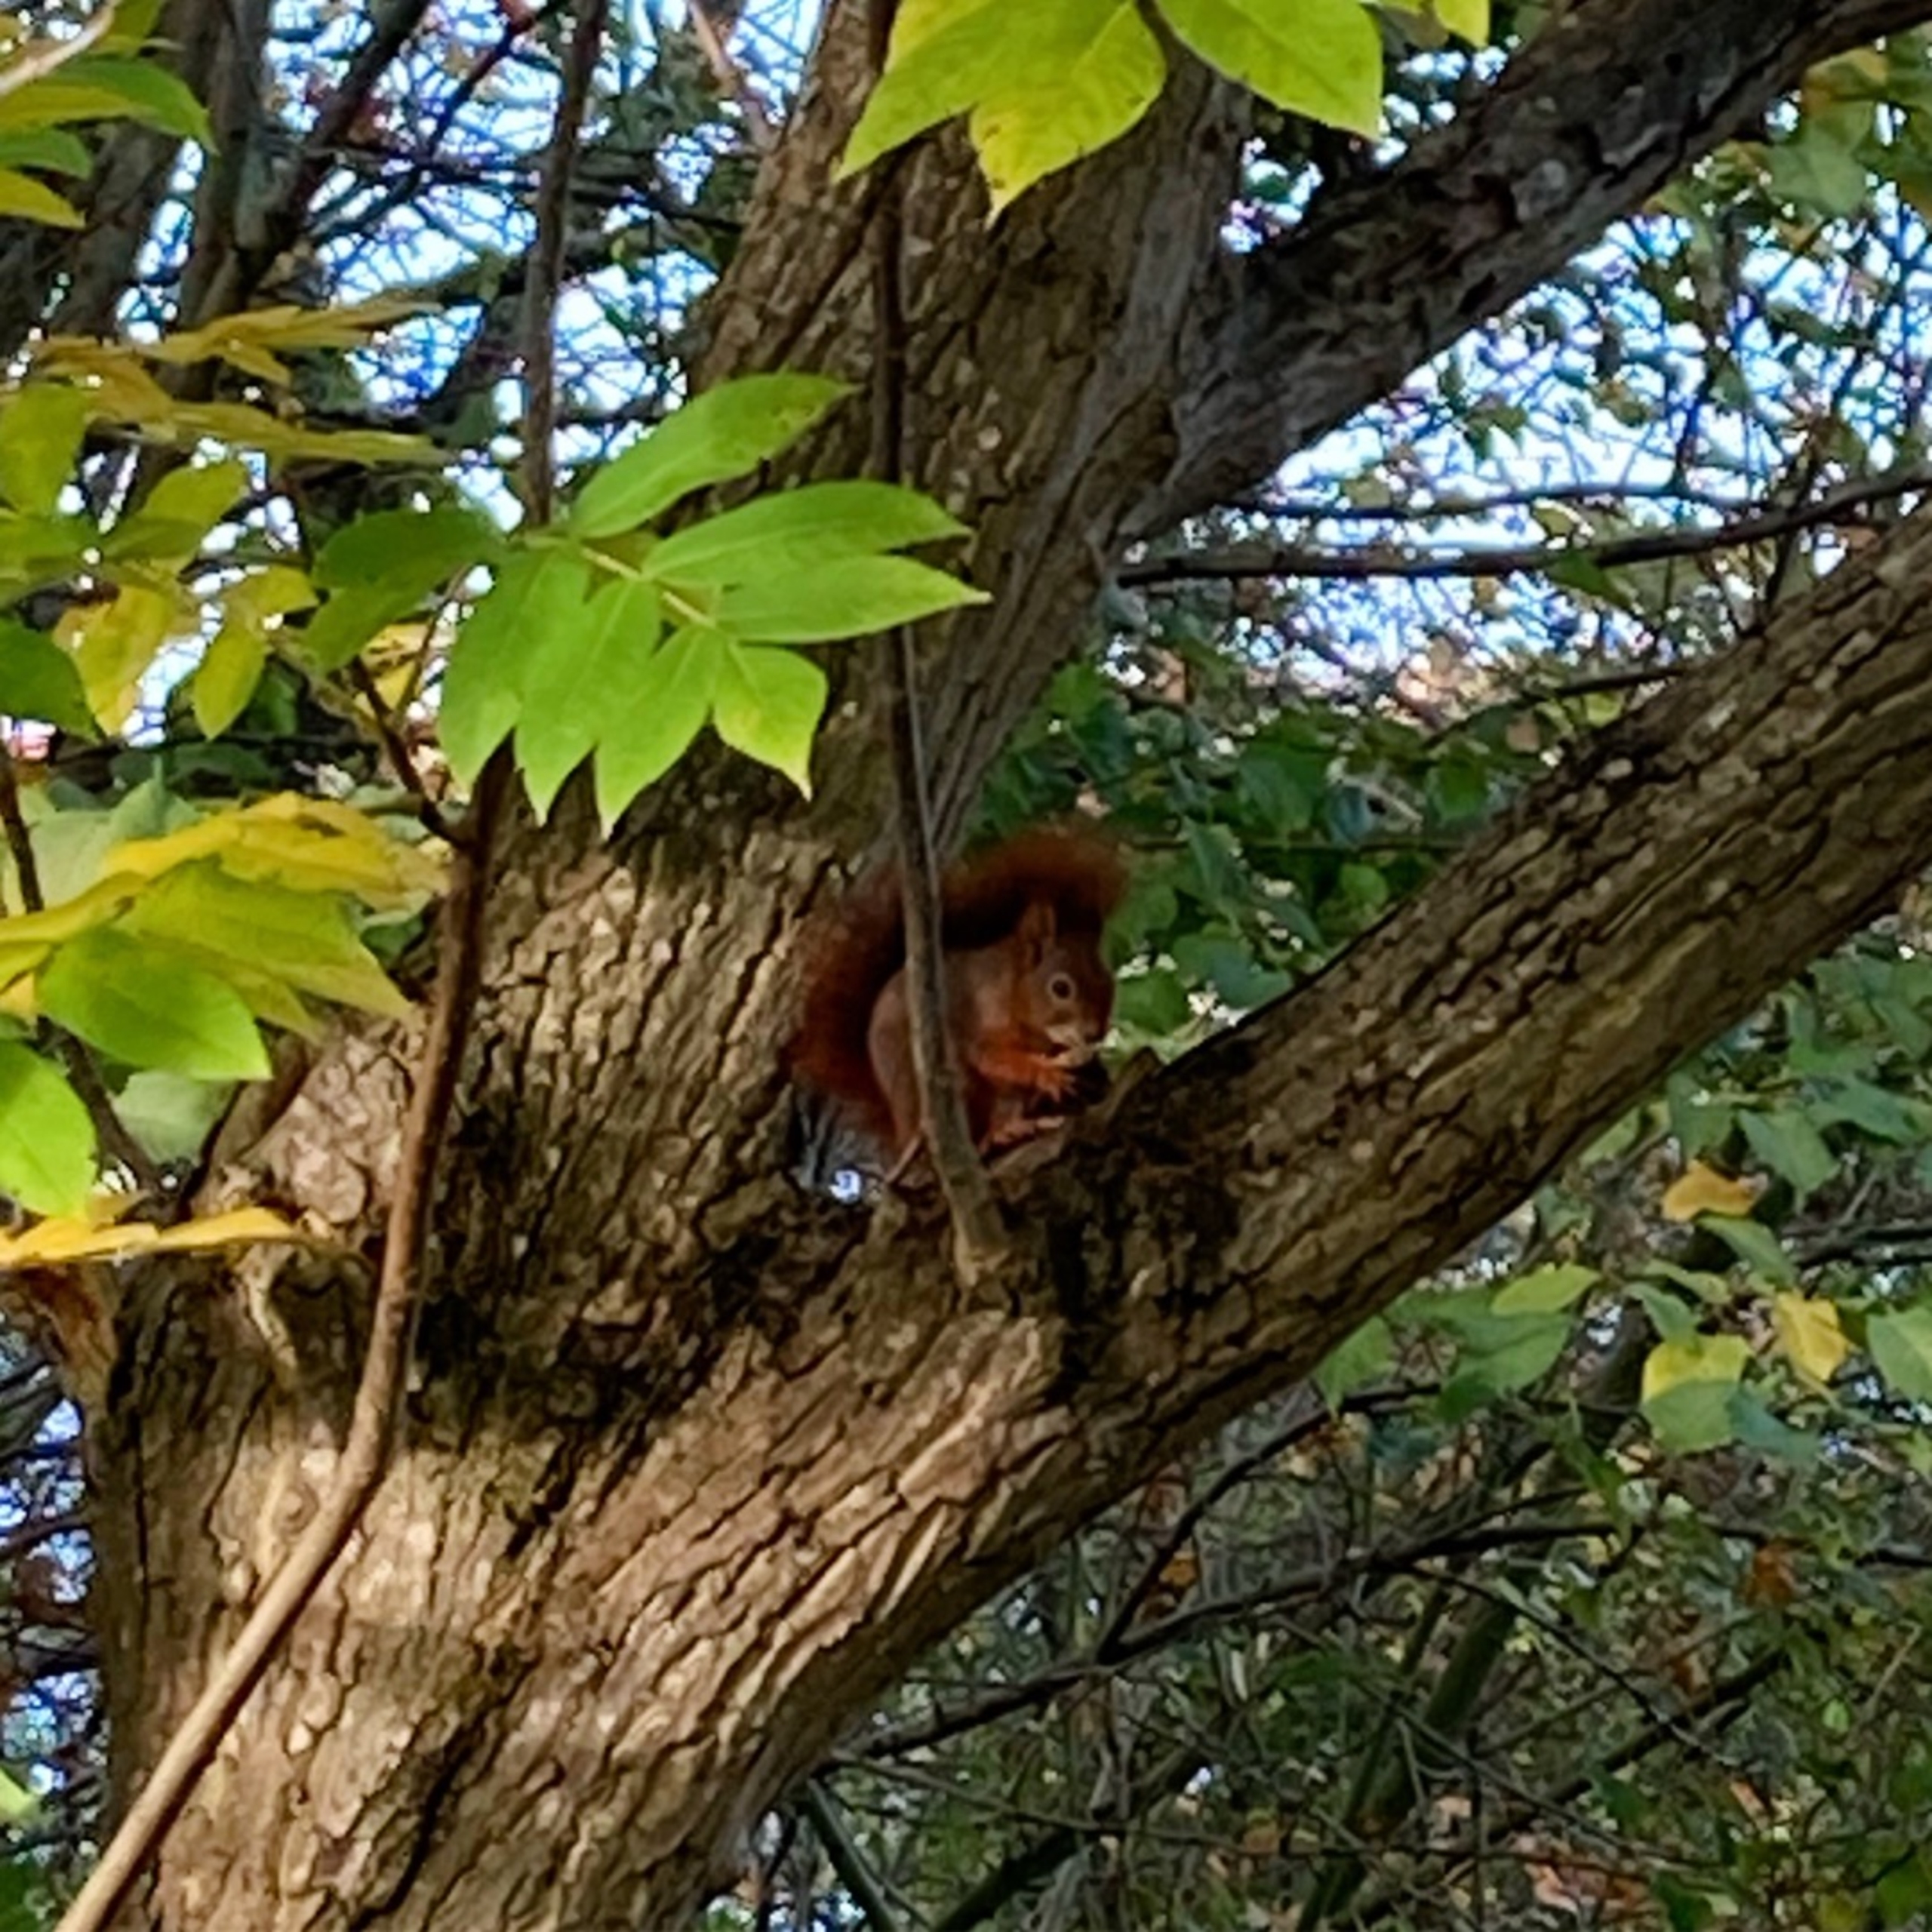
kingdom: Animalia
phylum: Chordata
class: Mammalia
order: Rodentia
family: Sciuridae
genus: Sciurus
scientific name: Sciurus vulgaris
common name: Egern
